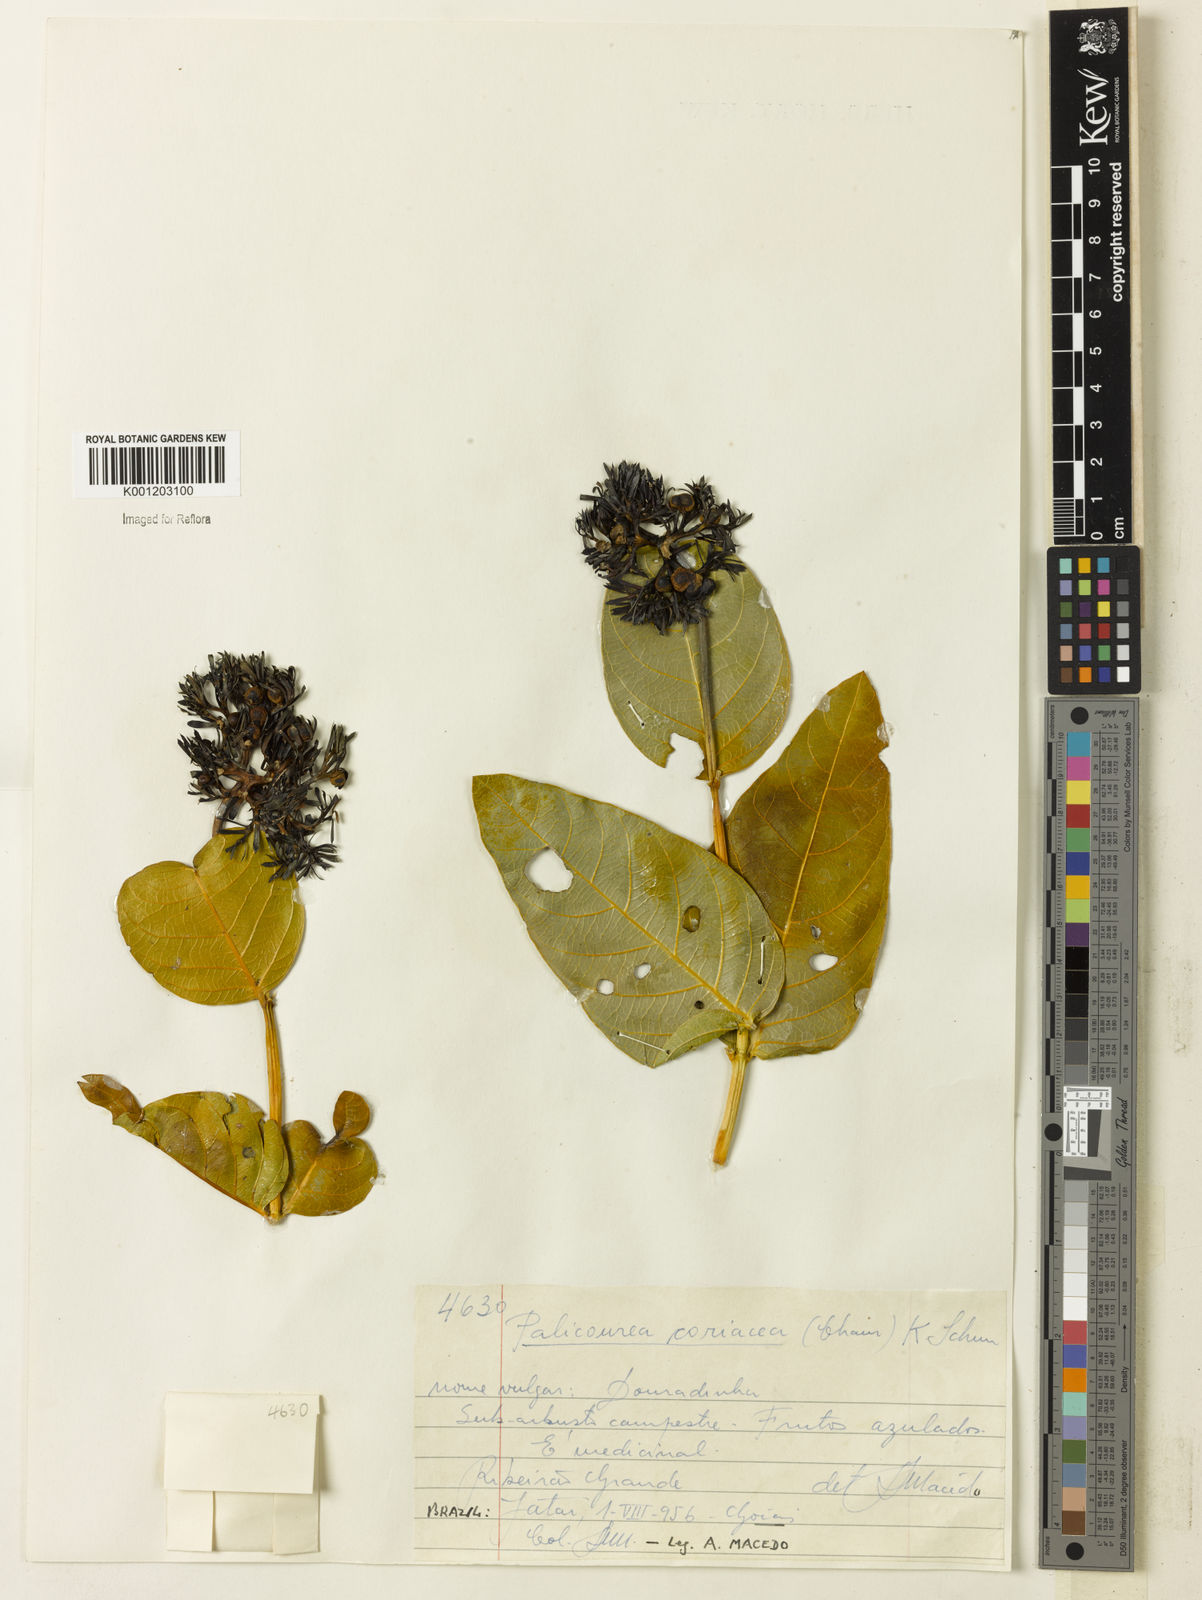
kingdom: Plantae
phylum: Tracheophyta
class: Magnoliopsida
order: Gentianales
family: Rubiaceae
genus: Palicourea
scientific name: Palicourea coriacea
